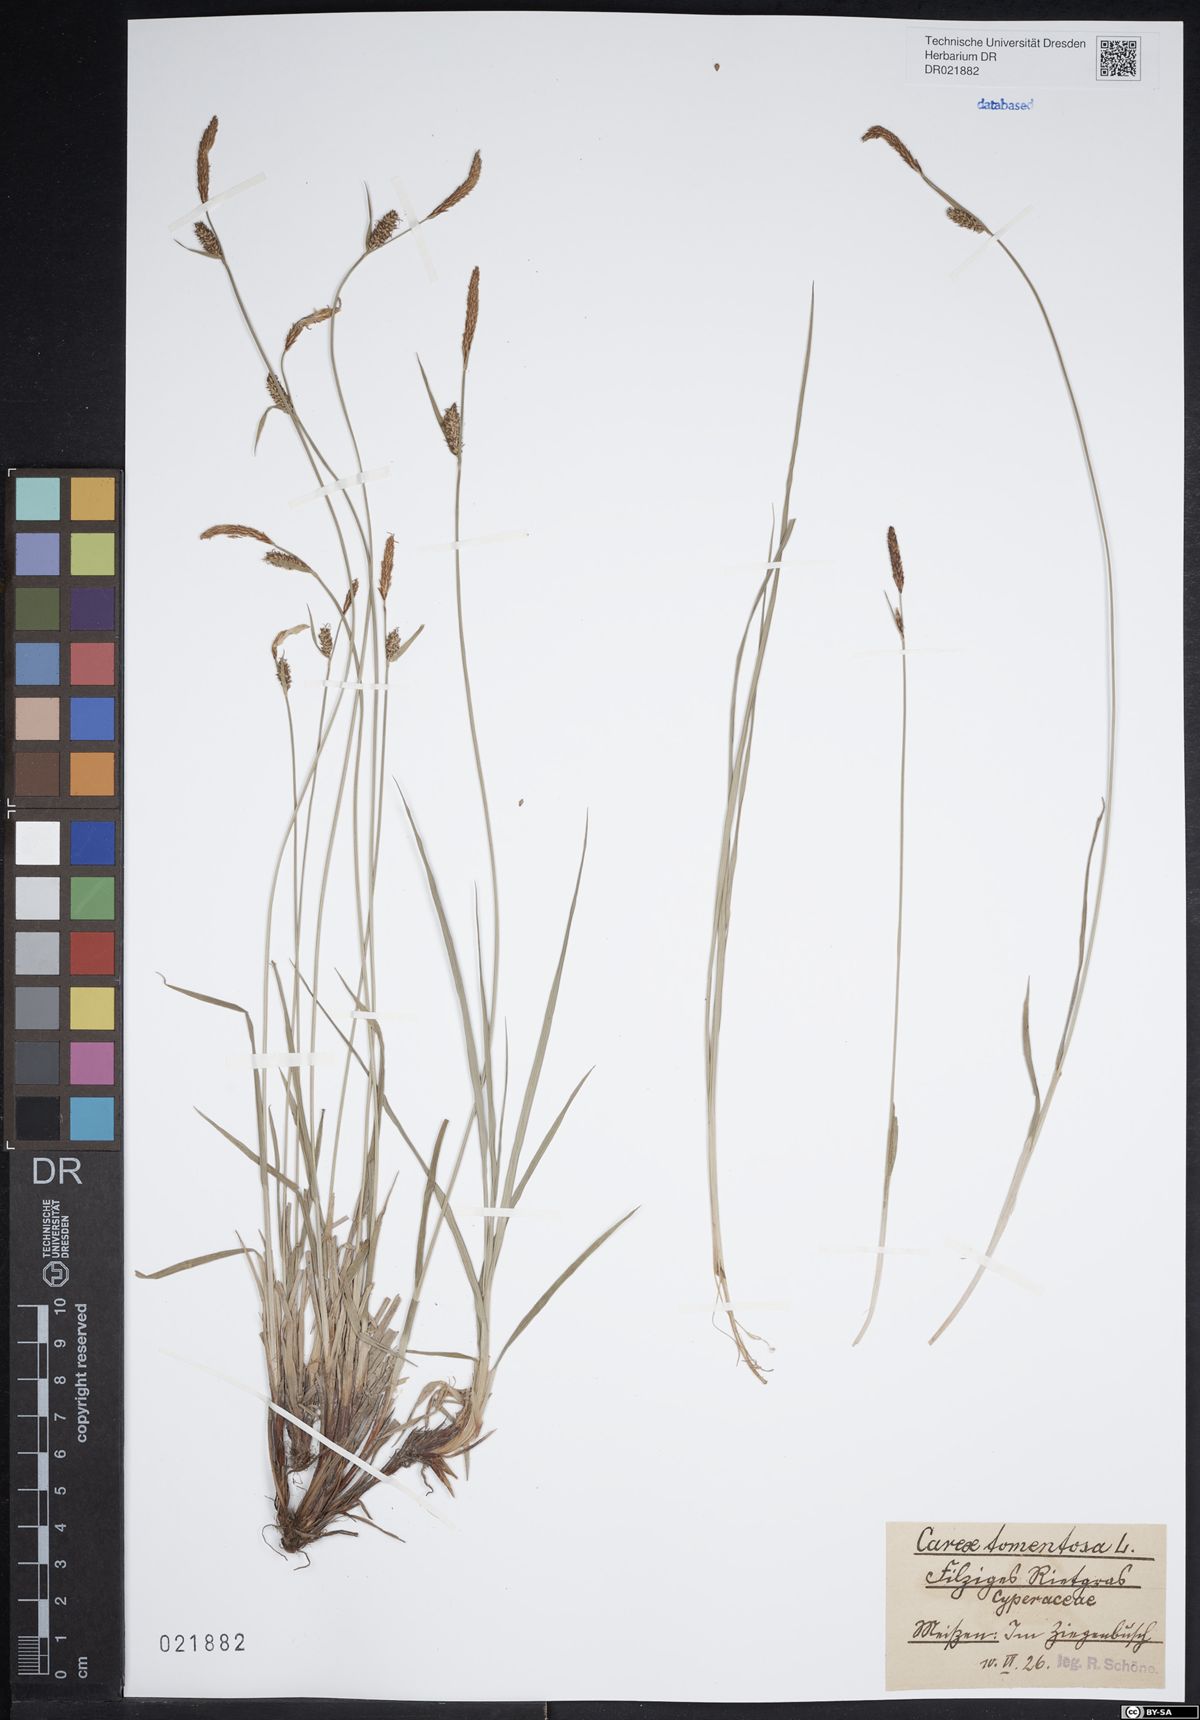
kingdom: Plantae
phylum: Tracheophyta
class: Liliopsida
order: Poales
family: Cyperaceae
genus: Carex
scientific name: Carex tomentosa
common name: Downy-fruited sedge
